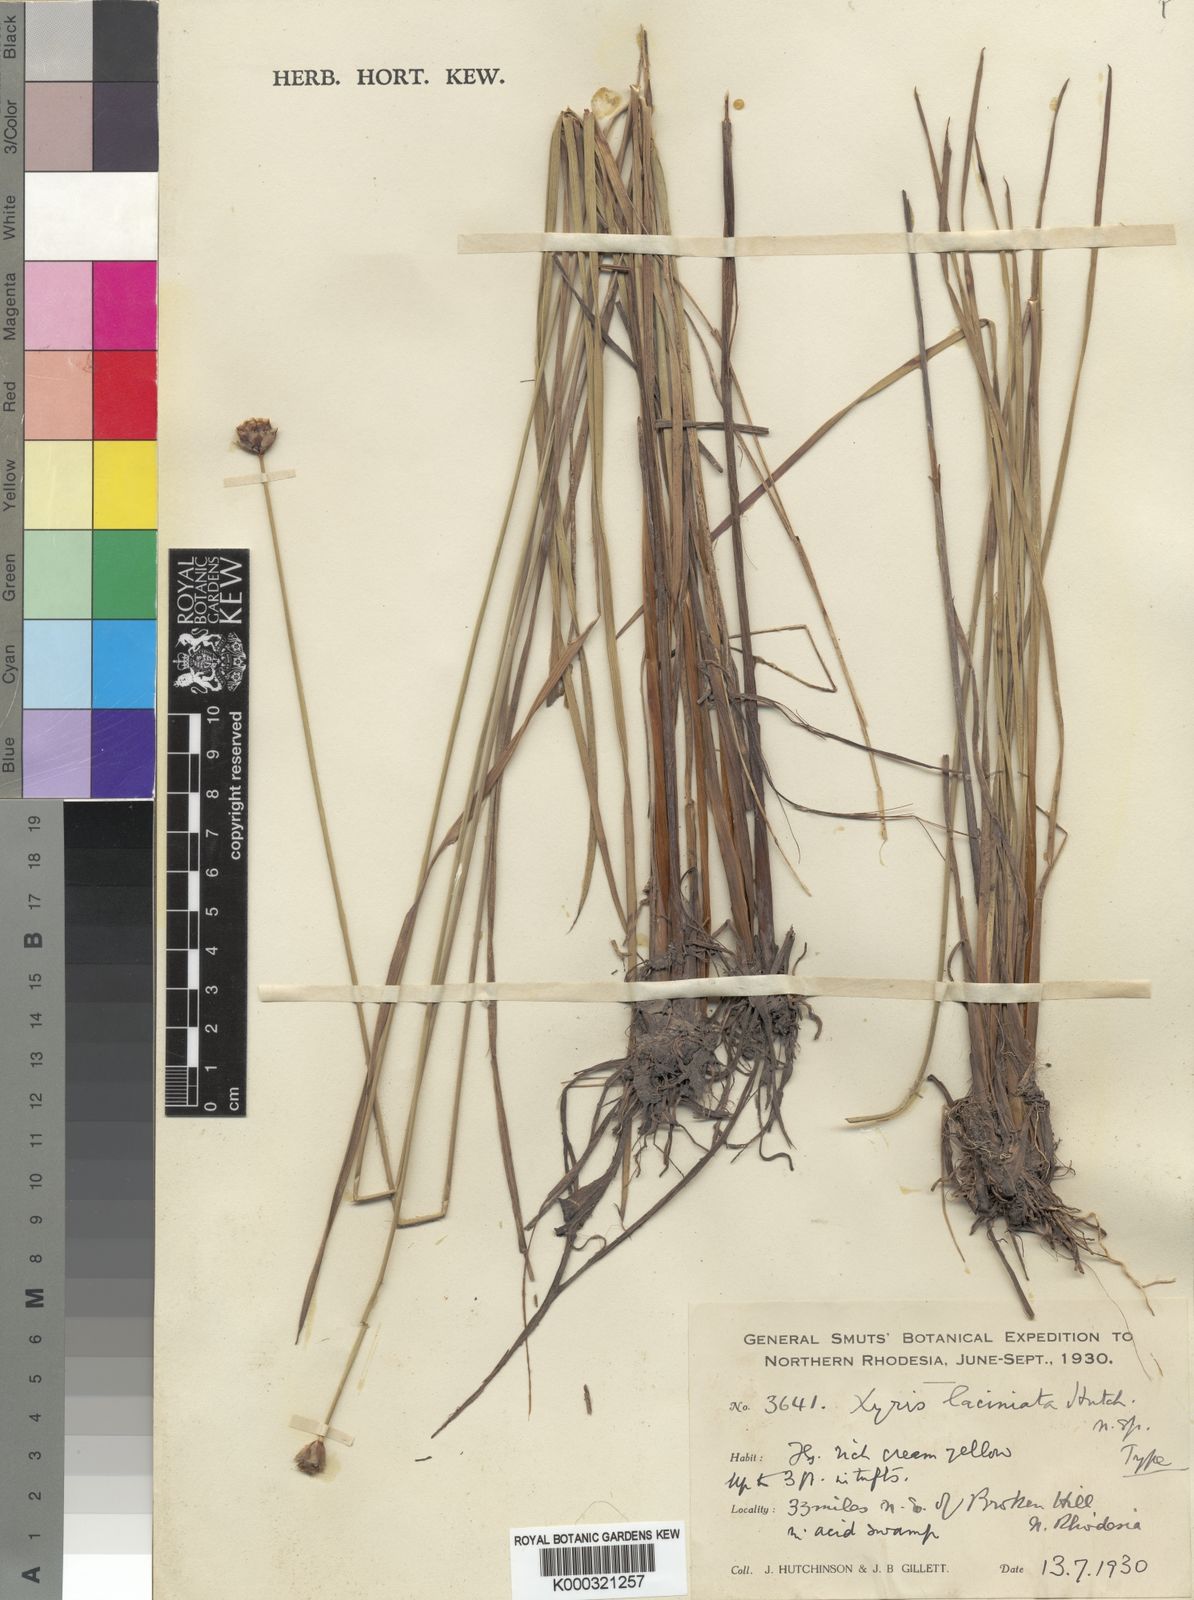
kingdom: Plantae
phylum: Tracheophyta
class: Liliopsida
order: Poales
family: Xyridaceae
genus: Xyris
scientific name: Xyris aristata
